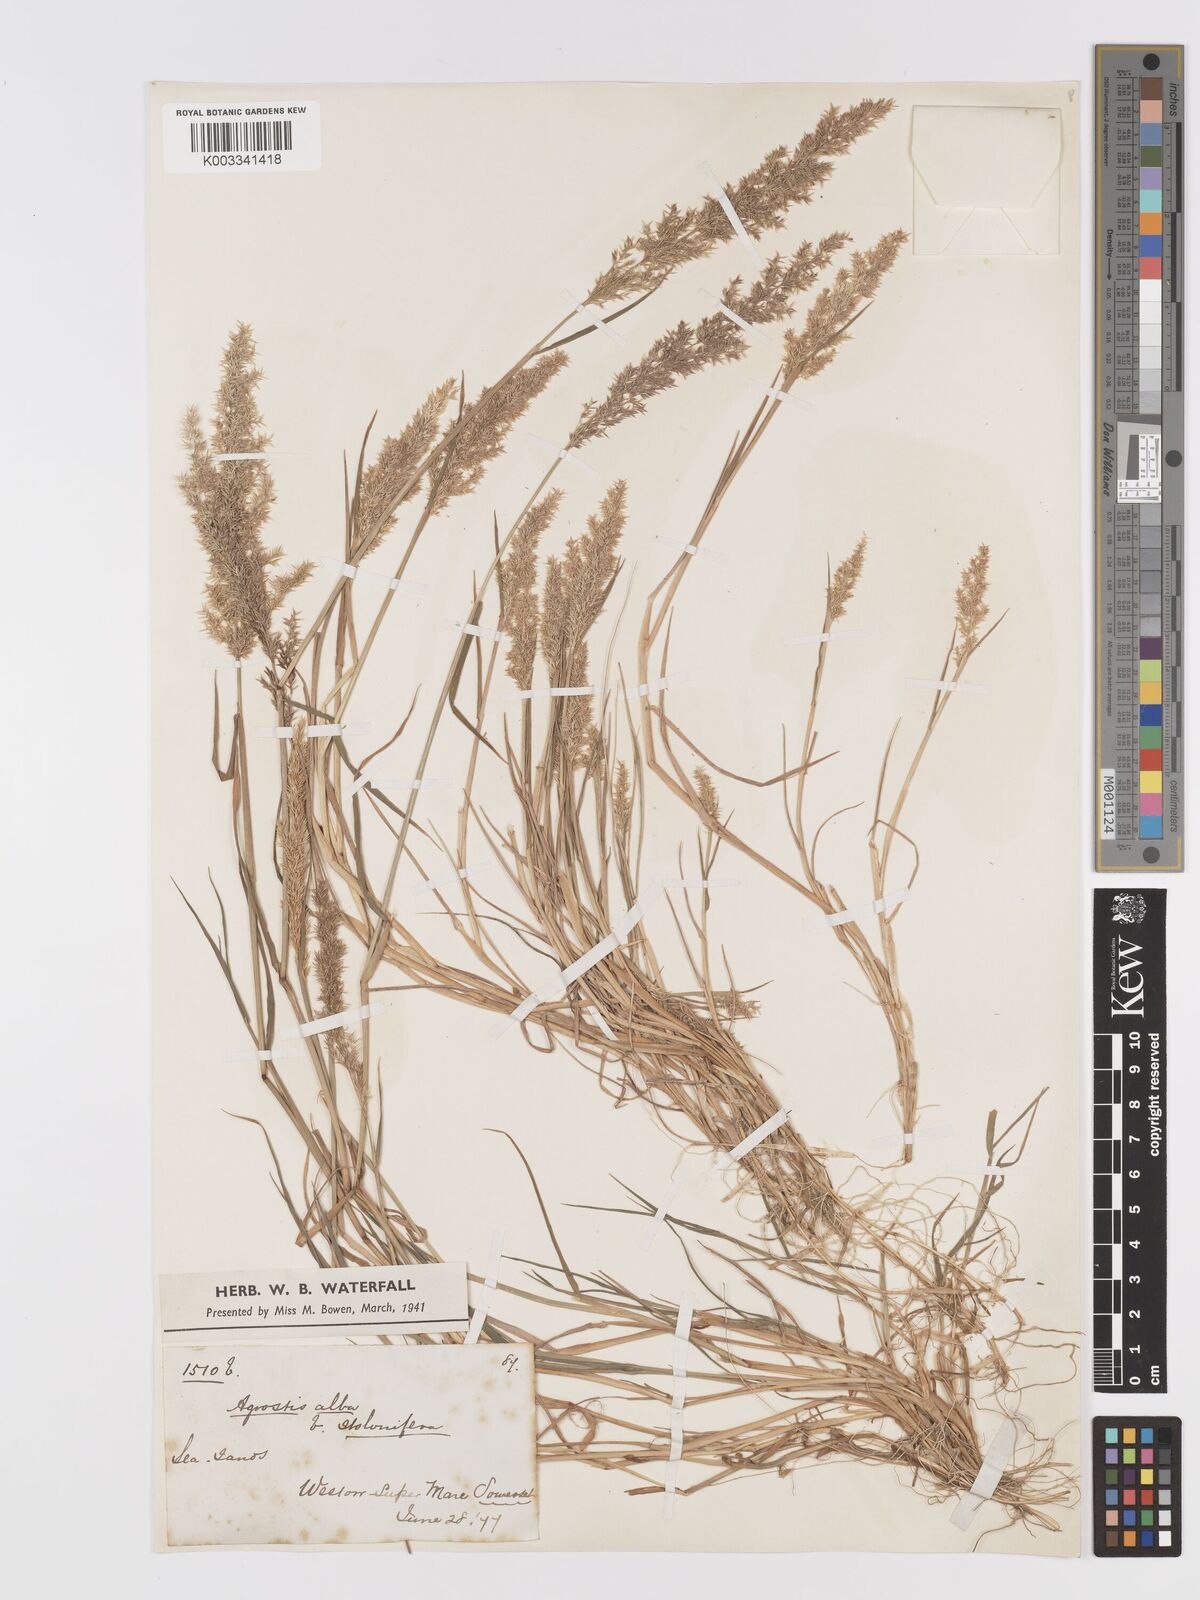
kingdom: Plantae
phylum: Tracheophyta
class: Liliopsida
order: Poales
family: Poaceae
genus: Agrostis
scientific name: Agrostis stolonifera
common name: Creeping bentgrass
